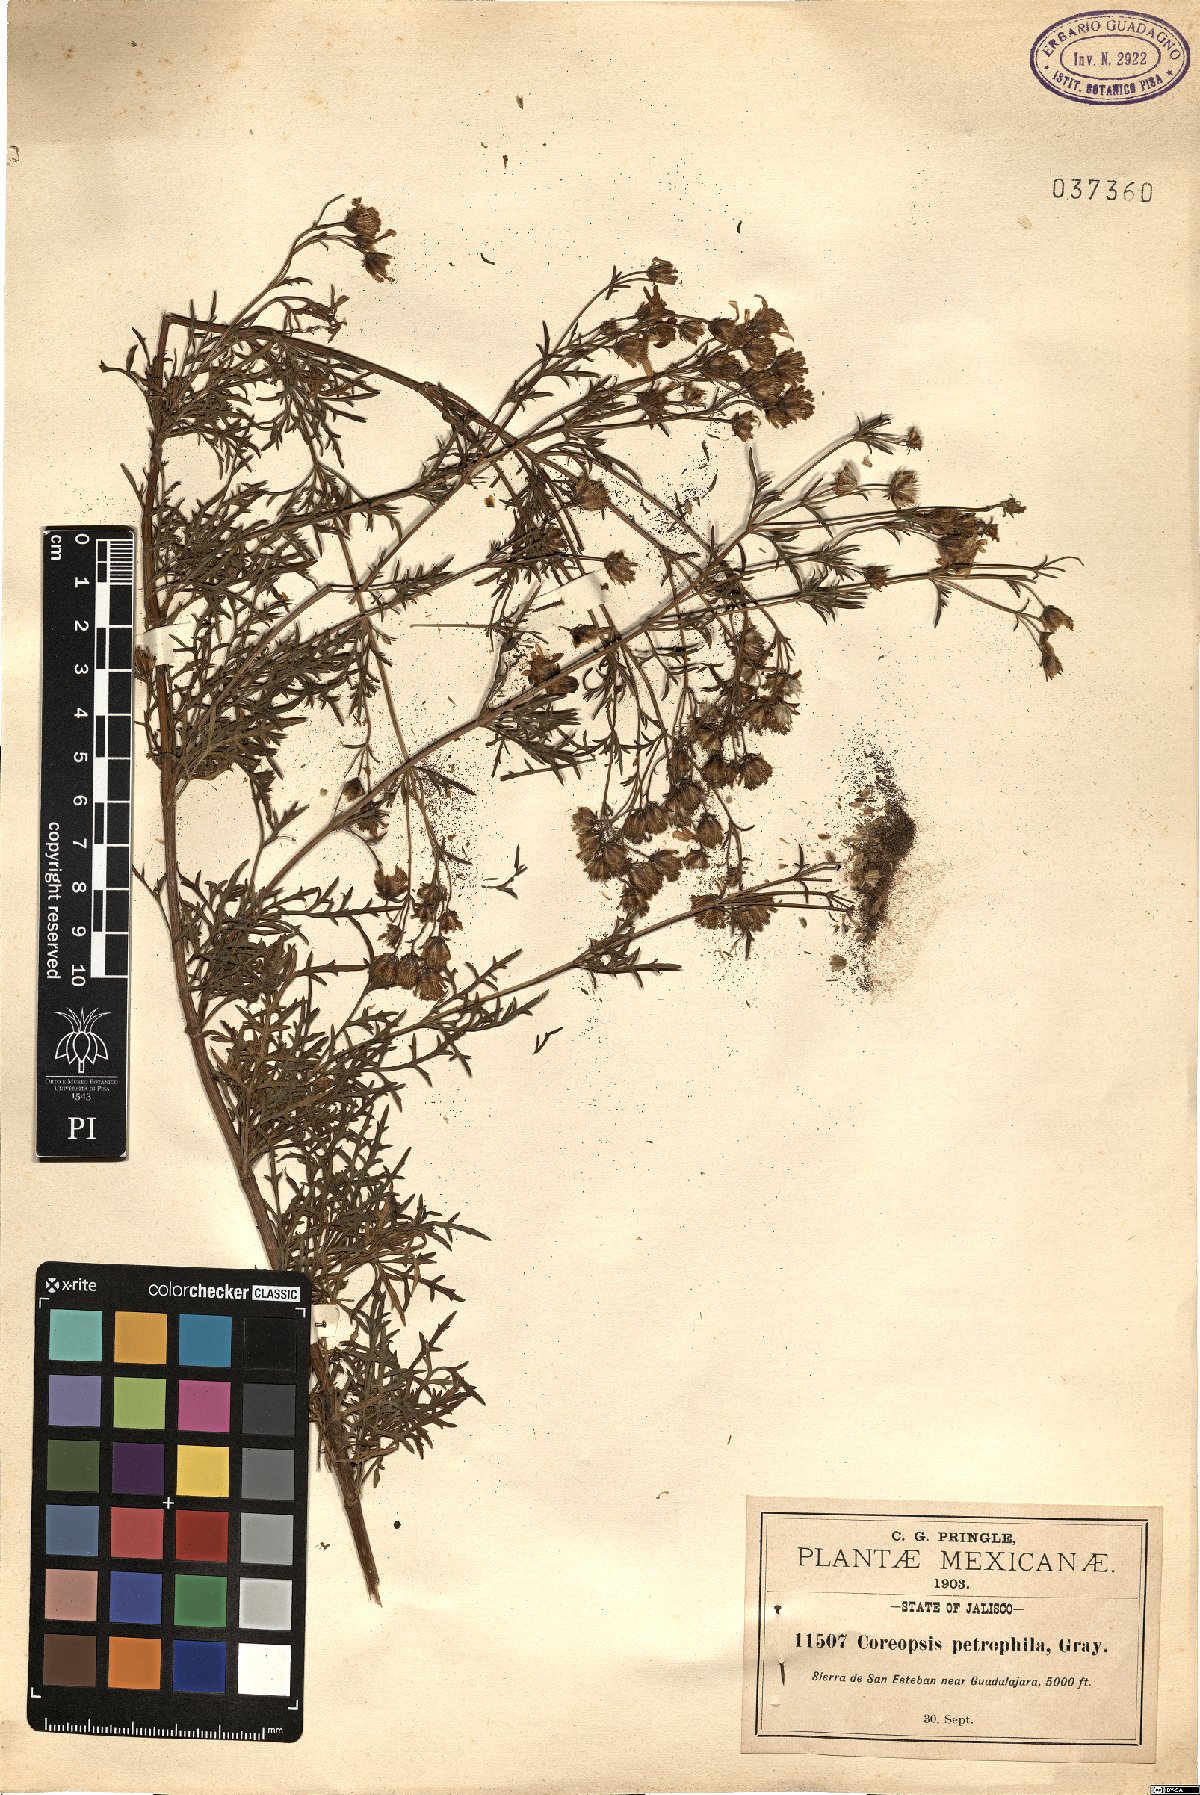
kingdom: Plantae
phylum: Tracheophyta
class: Magnoliopsida
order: Asterales
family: Asteraceae
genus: Coreopsis
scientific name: Coreopsis petrophila
